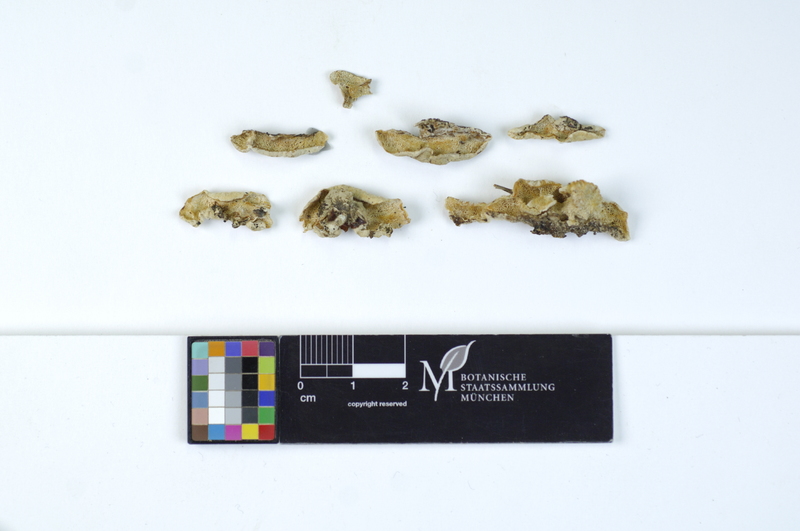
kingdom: Plantae
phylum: Tracheophyta
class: Pinopsida
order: Pinales
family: Pinaceae
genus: Pinus
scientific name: Pinus
